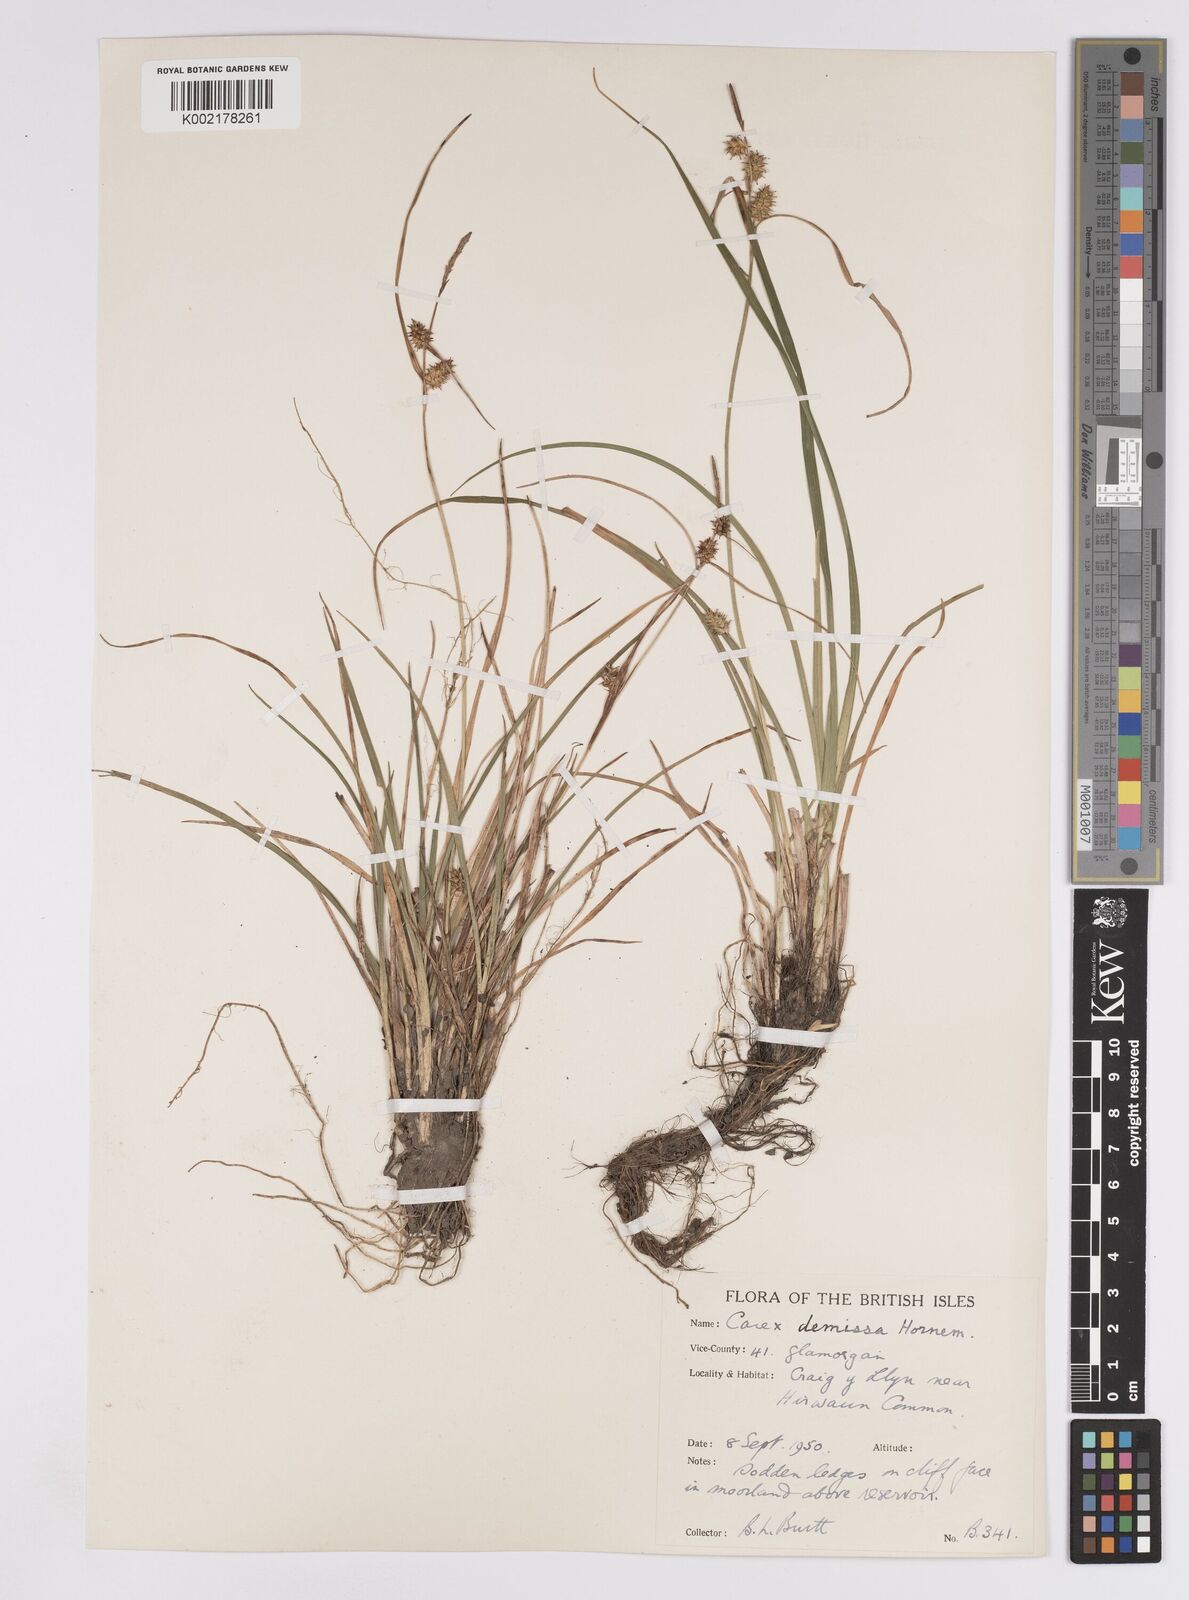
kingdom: Plantae
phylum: Tracheophyta
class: Liliopsida
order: Poales
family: Cyperaceae
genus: Carex
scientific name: Carex demissa
